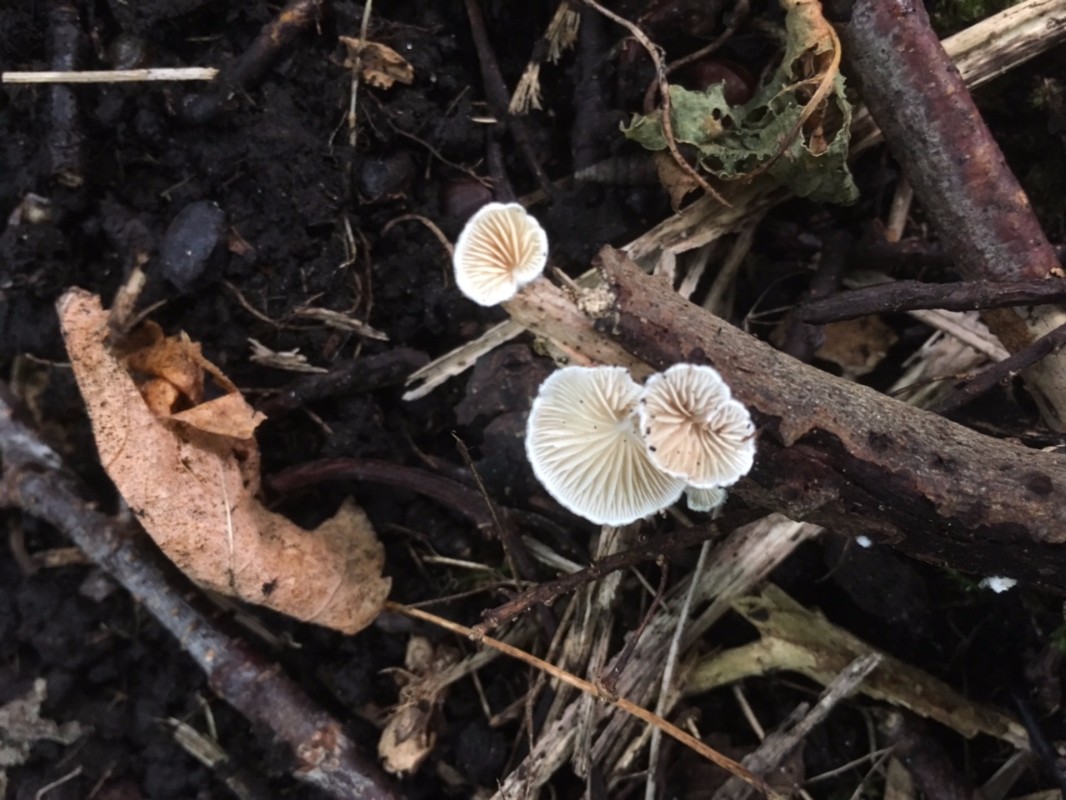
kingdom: Fungi
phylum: Basidiomycota
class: Agaricomycetes
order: Agaricales
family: Crepidotaceae
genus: Crepidotus
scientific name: Crepidotus cesatii
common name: almindelig muslingesvamp
